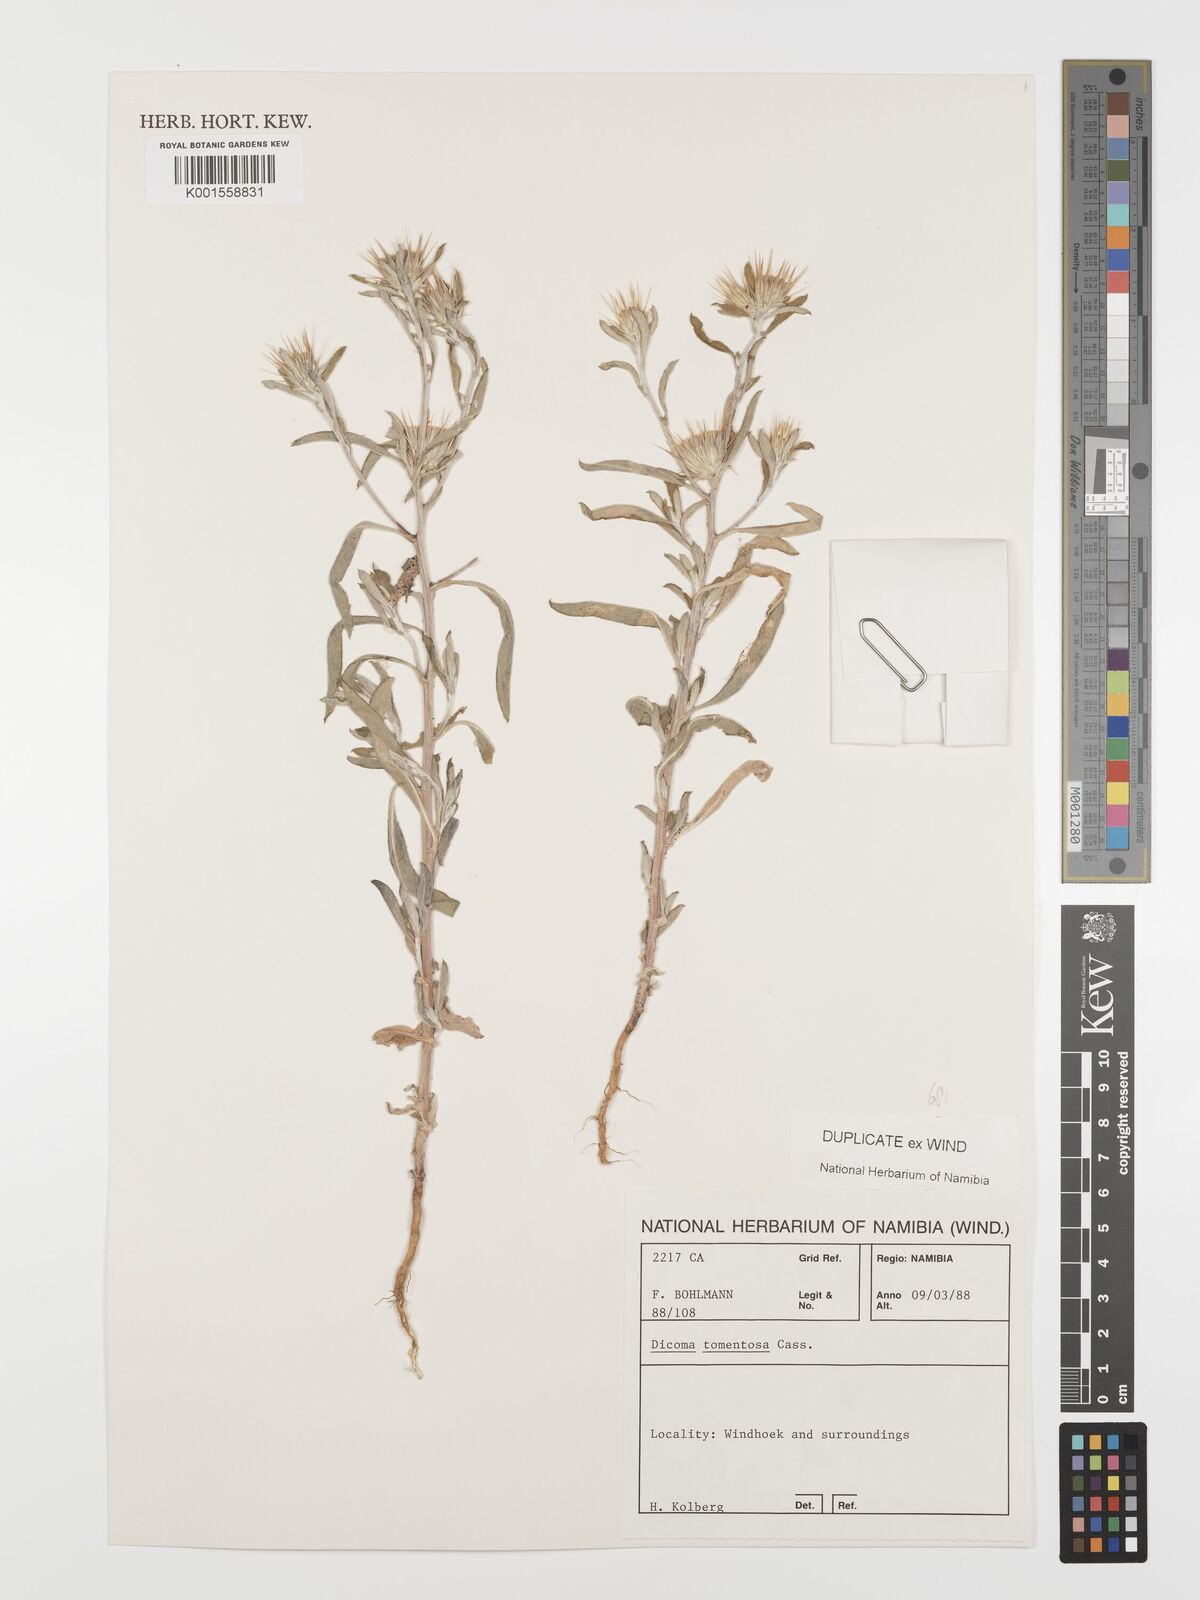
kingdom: Plantae
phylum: Tracheophyta
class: Magnoliopsida
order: Asterales
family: Asteraceae
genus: Dicoma
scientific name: Dicoma tomentosa
